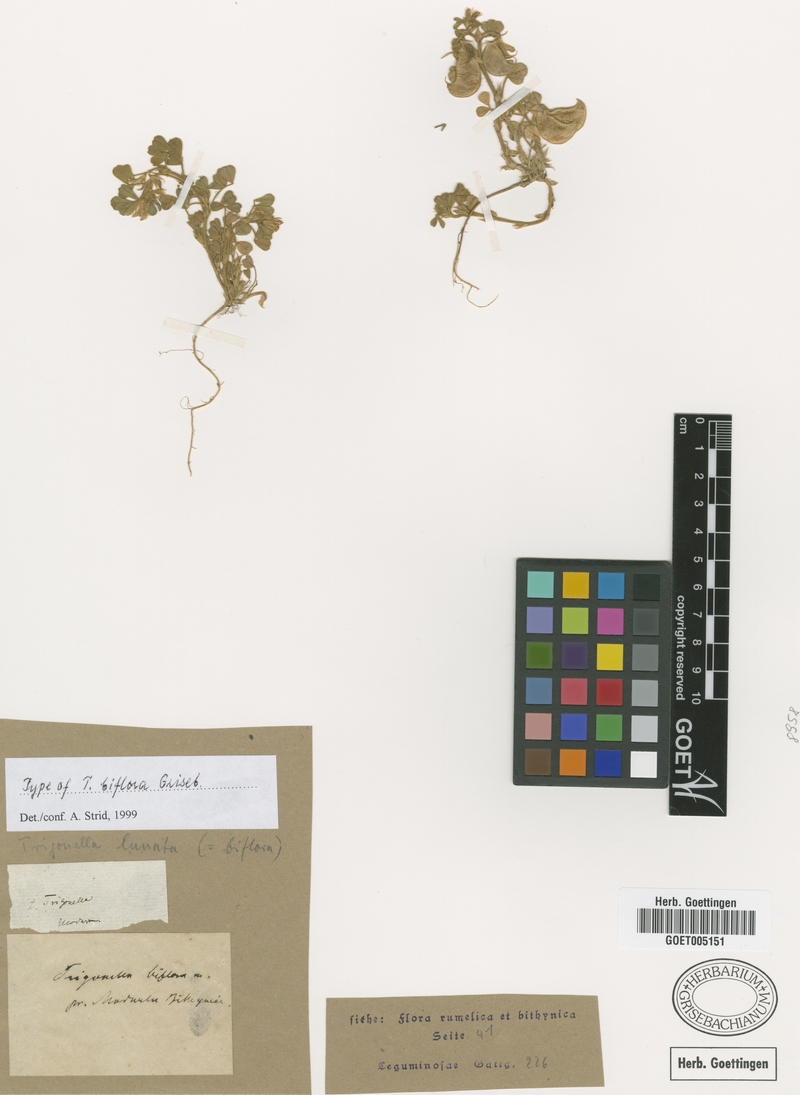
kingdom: Plantae
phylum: Tracheophyta
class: Magnoliopsida
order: Fabales
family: Fabaceae
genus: Medicago
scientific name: Medicago biflora
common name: Lunate medic
